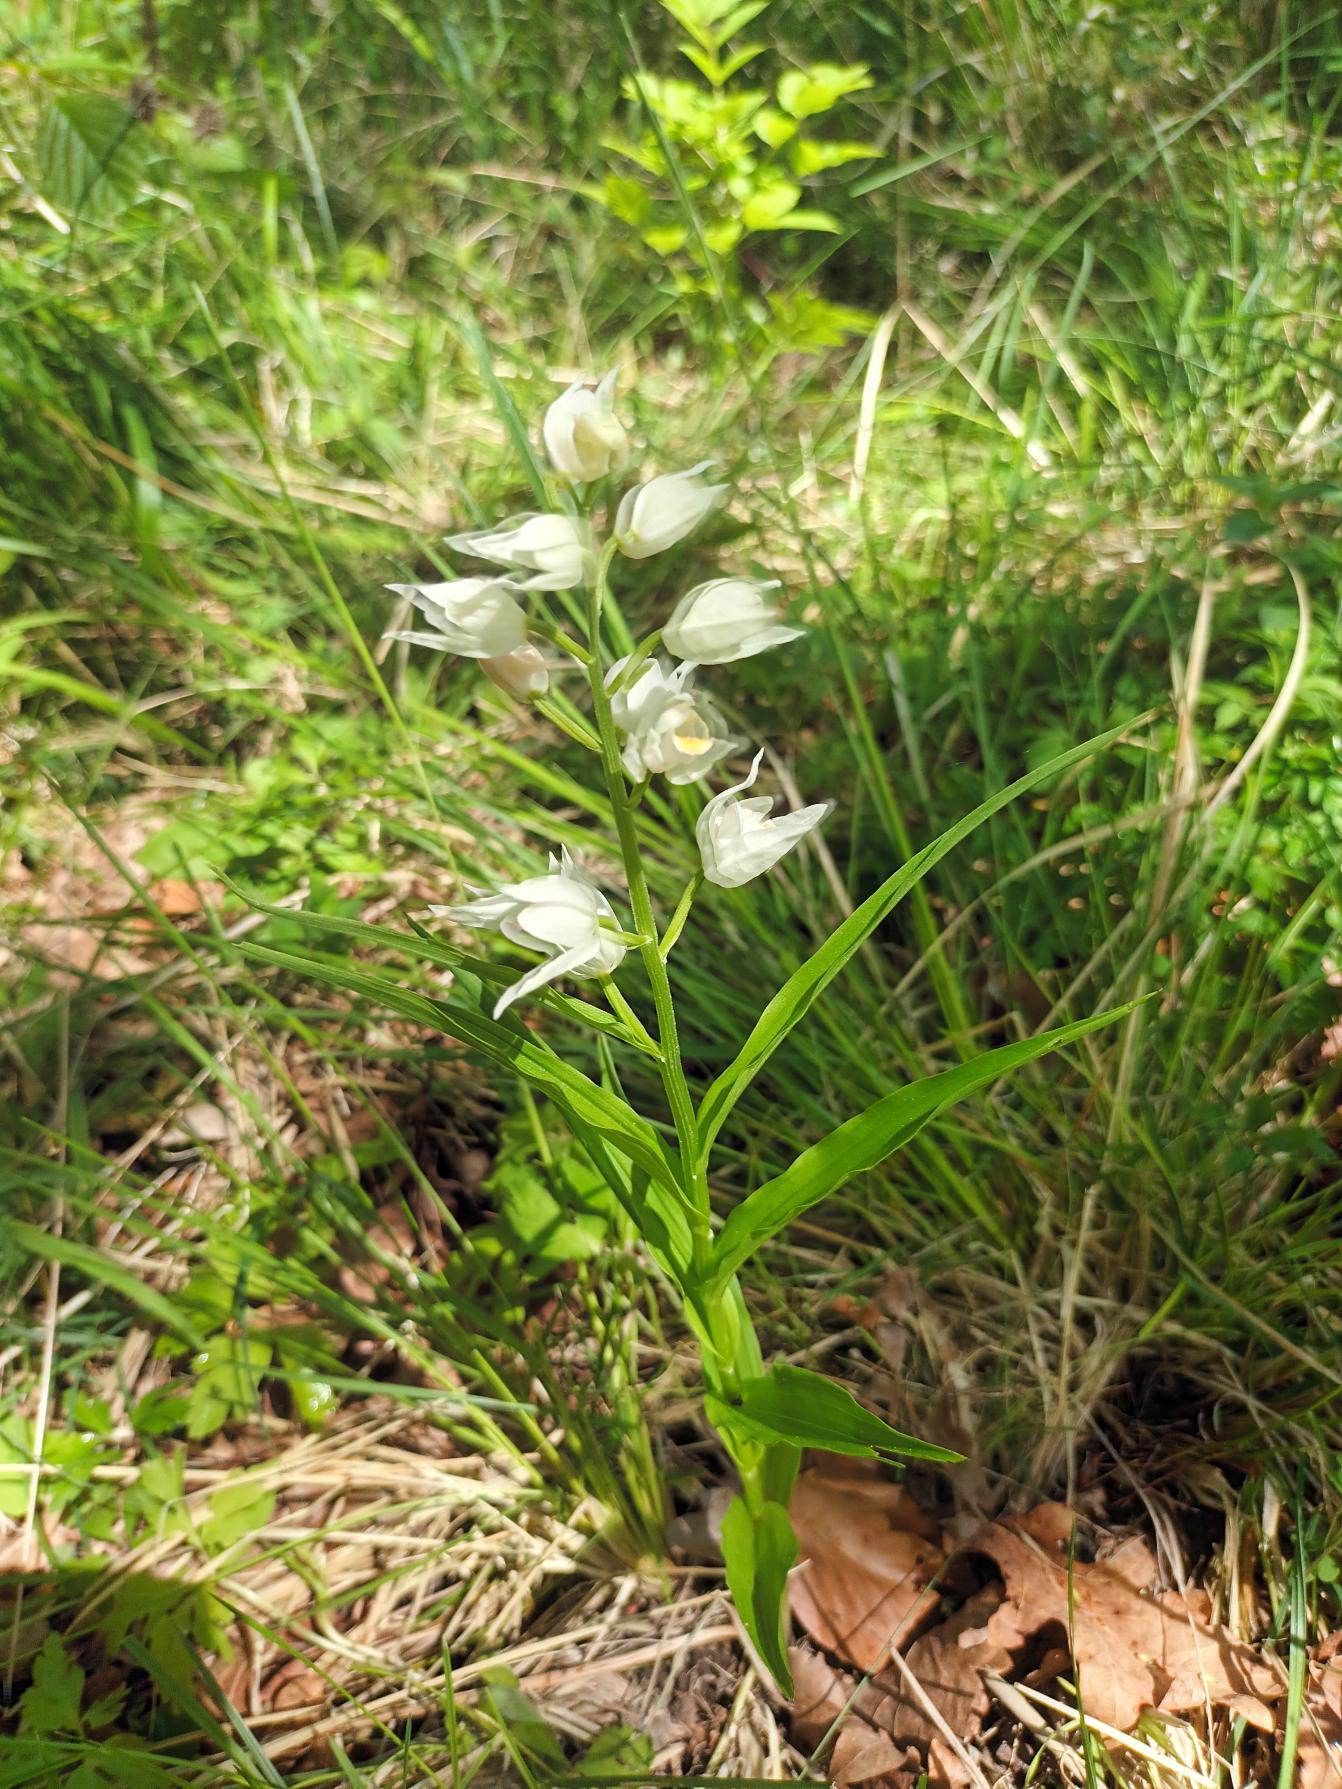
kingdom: Plantae
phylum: Tracheophyta
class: Liliopsida
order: Asparagales
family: Orchidaceae
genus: Cephalanthera
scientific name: Cephalanthera longifolia
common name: Sværd-skovlilje
